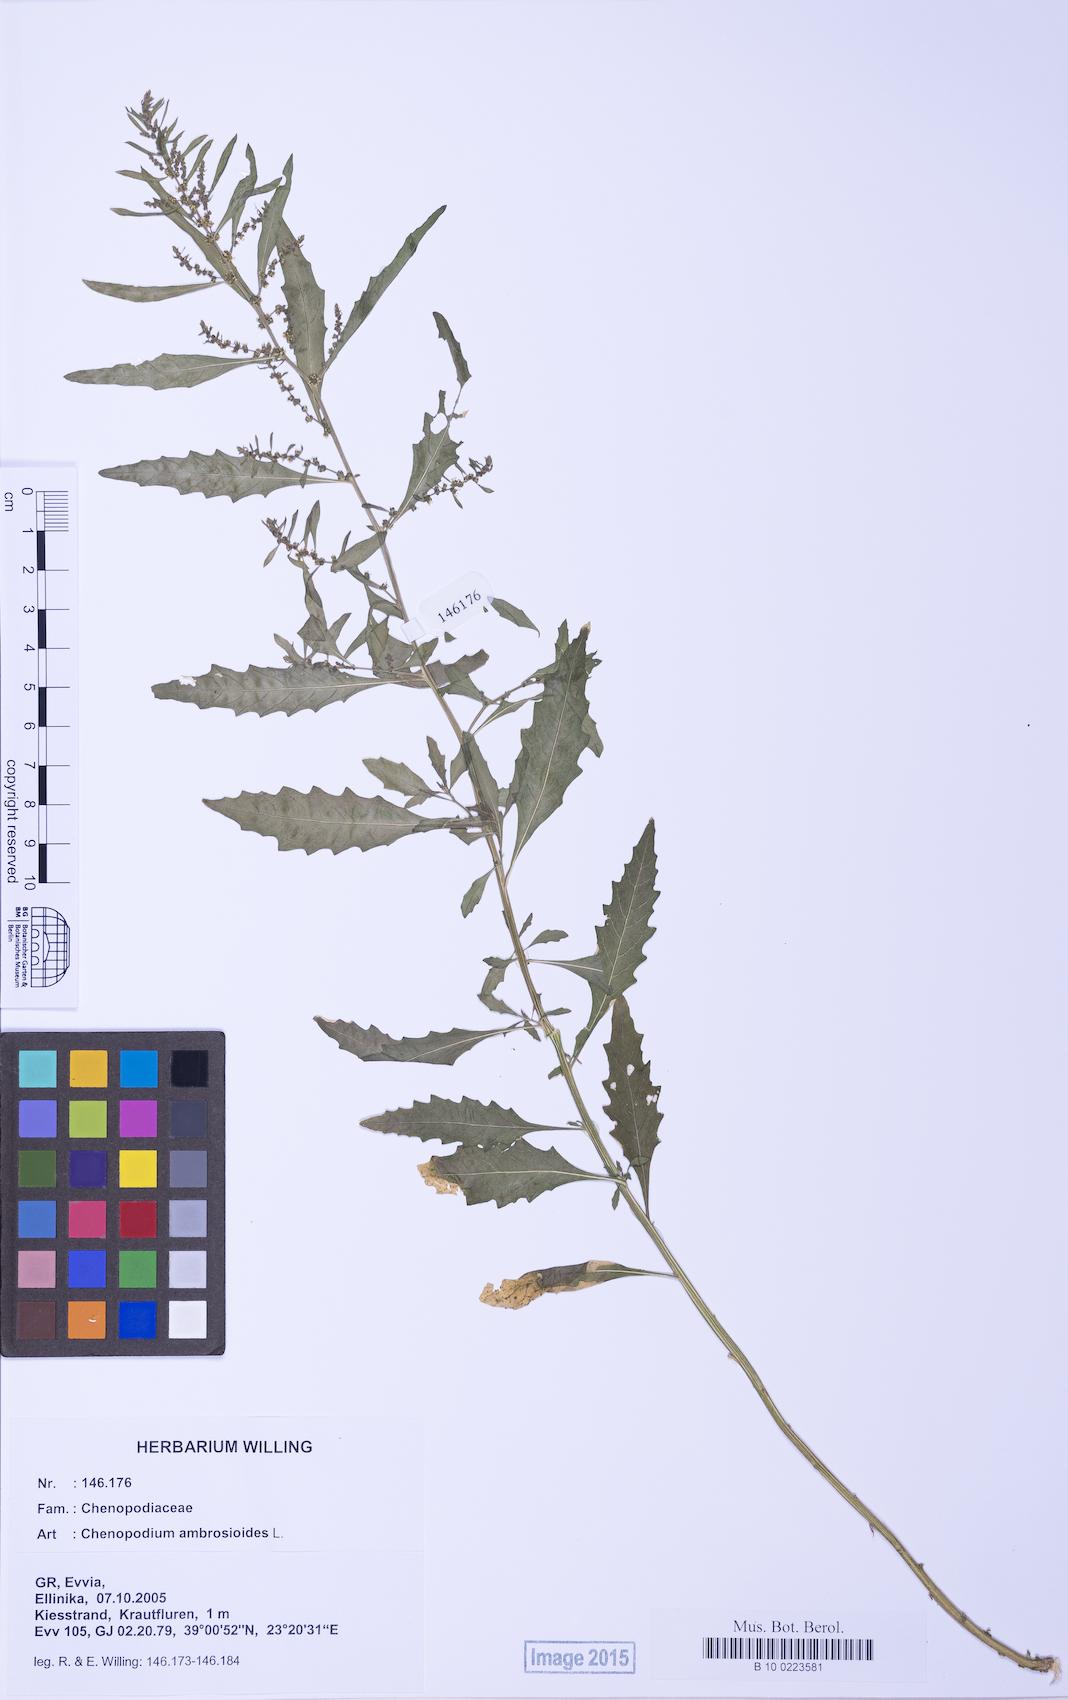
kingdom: Plantae
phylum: Tracheophyta
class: Magnoliopsida
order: Caryophyllales
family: Amaranthaceae
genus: Dysphania
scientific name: Dysphania ambrosioides
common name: Wormseed
